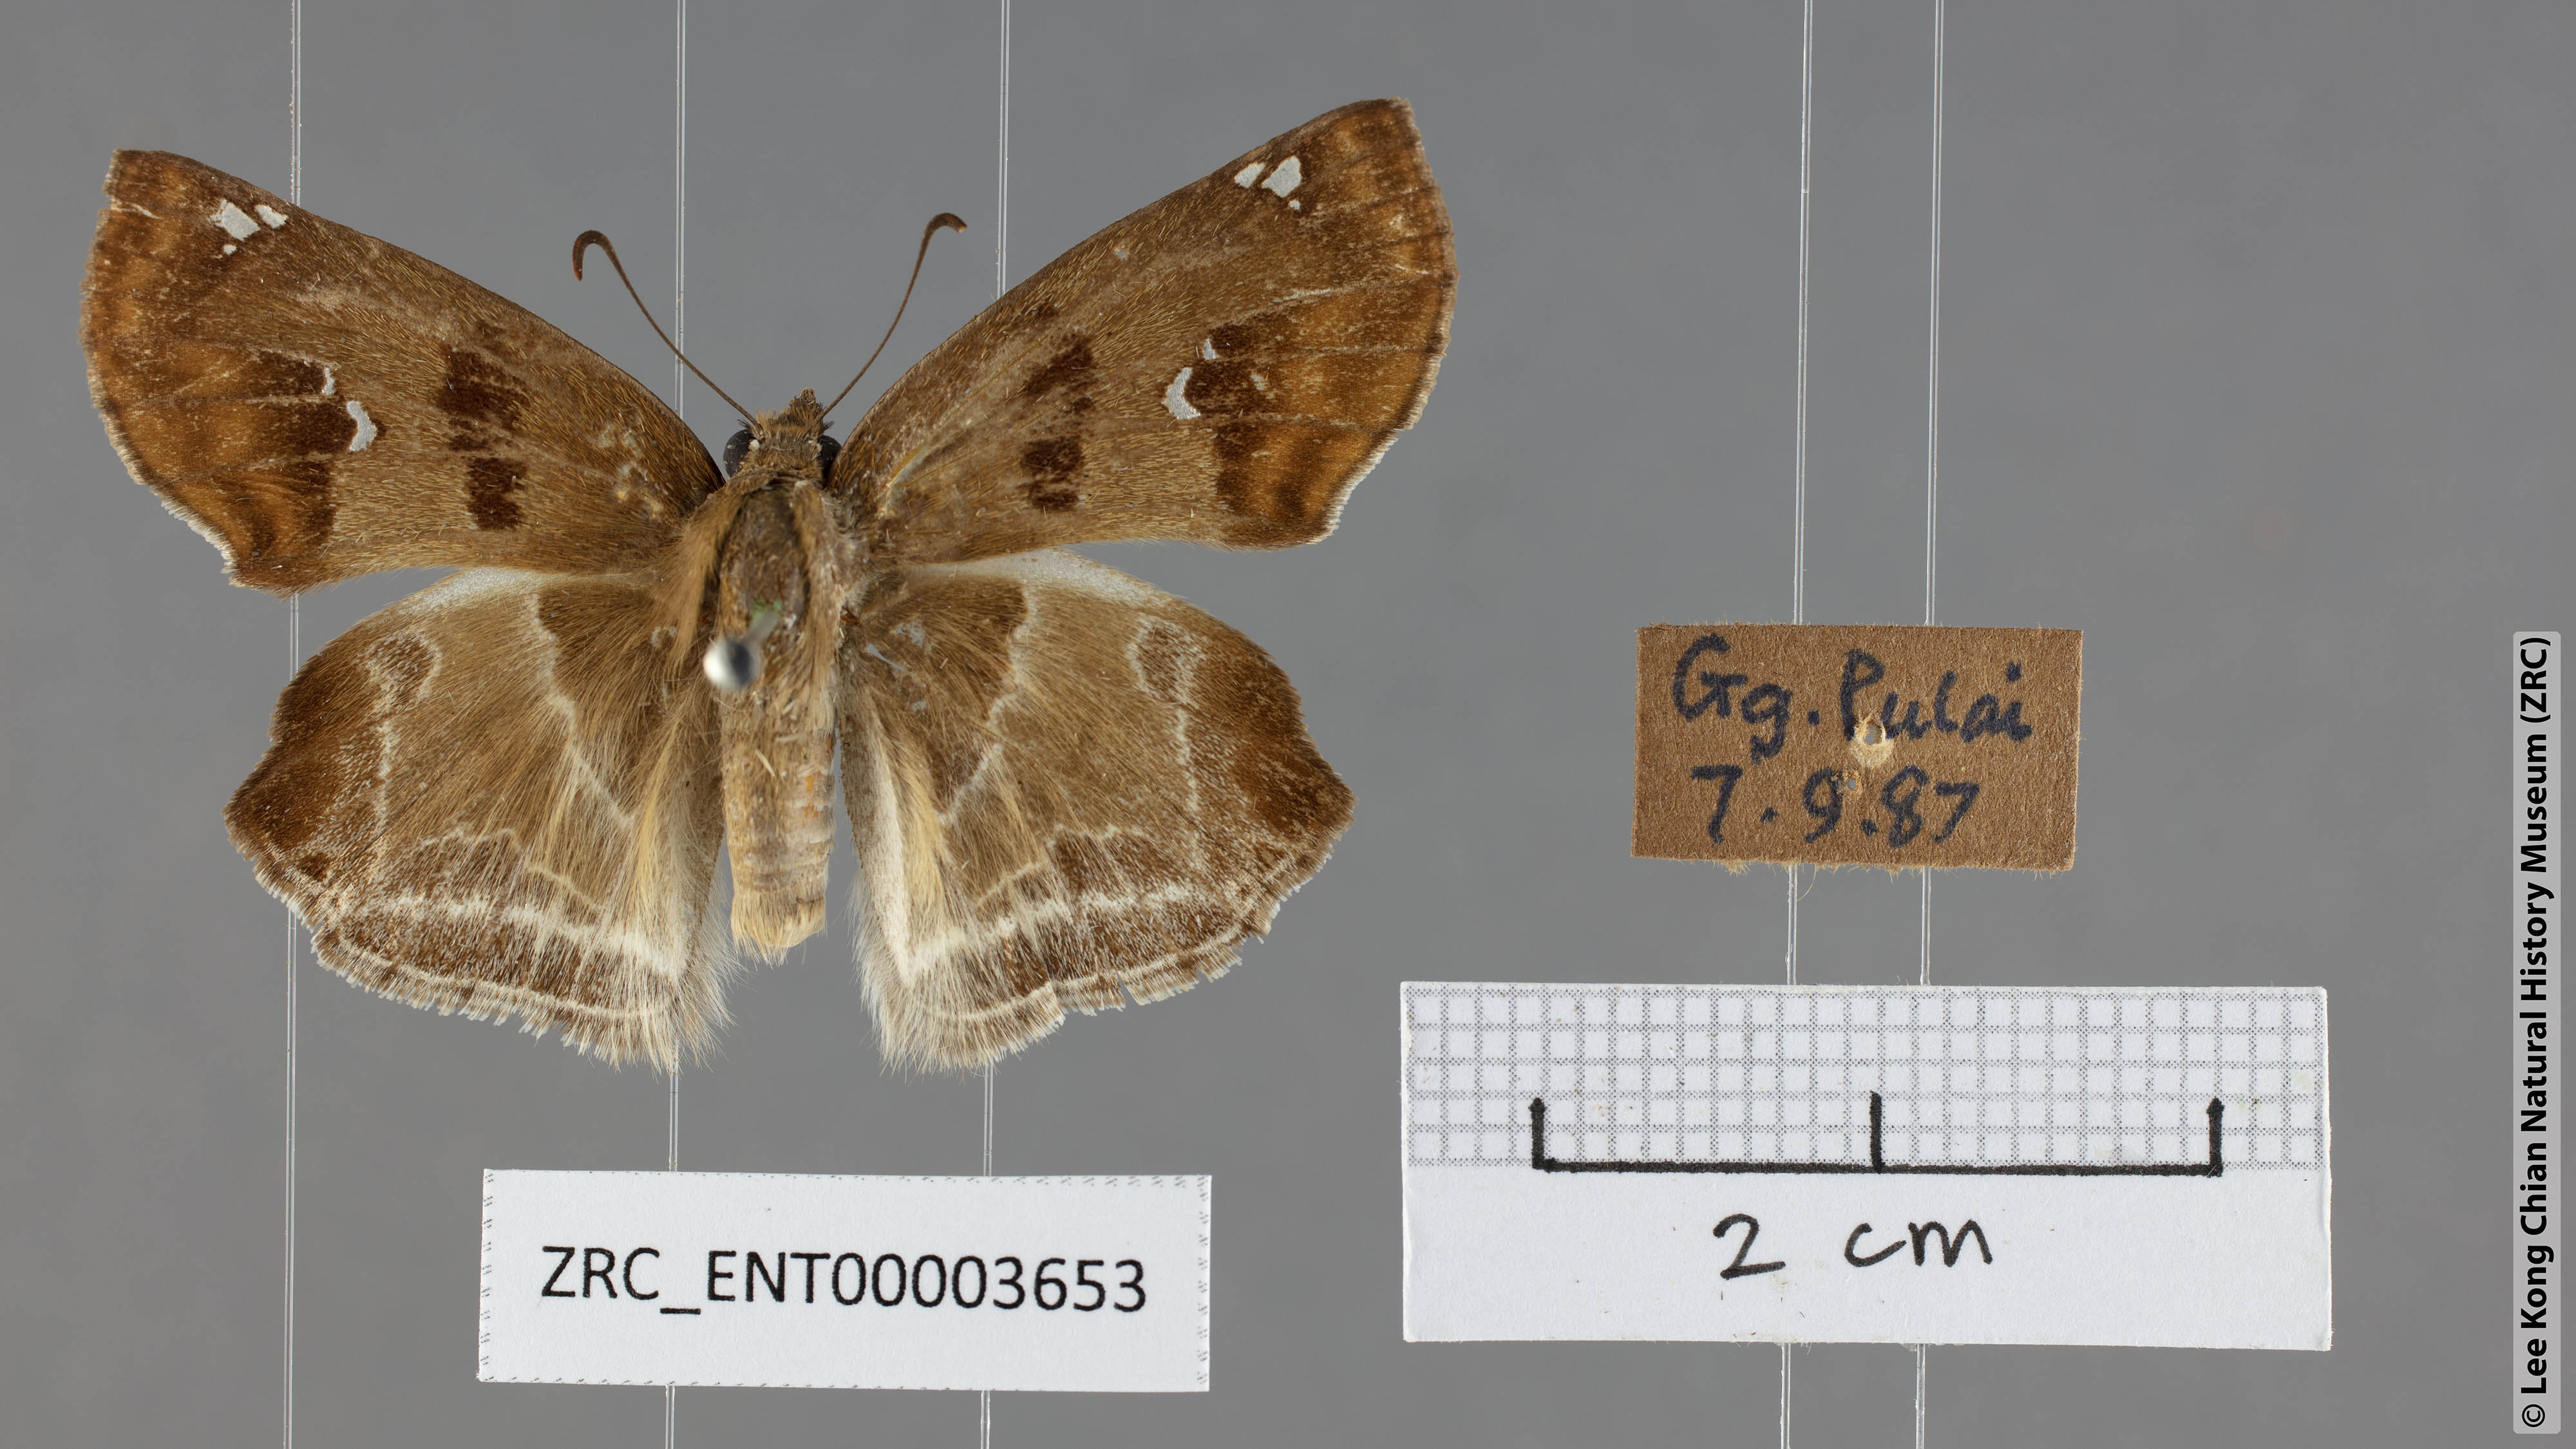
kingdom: Animalia
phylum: Arthropoda
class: Insecta
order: Lepidoptera
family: Hesperiidae
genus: Odontoptilum
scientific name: Odontoptilum angulata
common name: Chestnut banded angle
